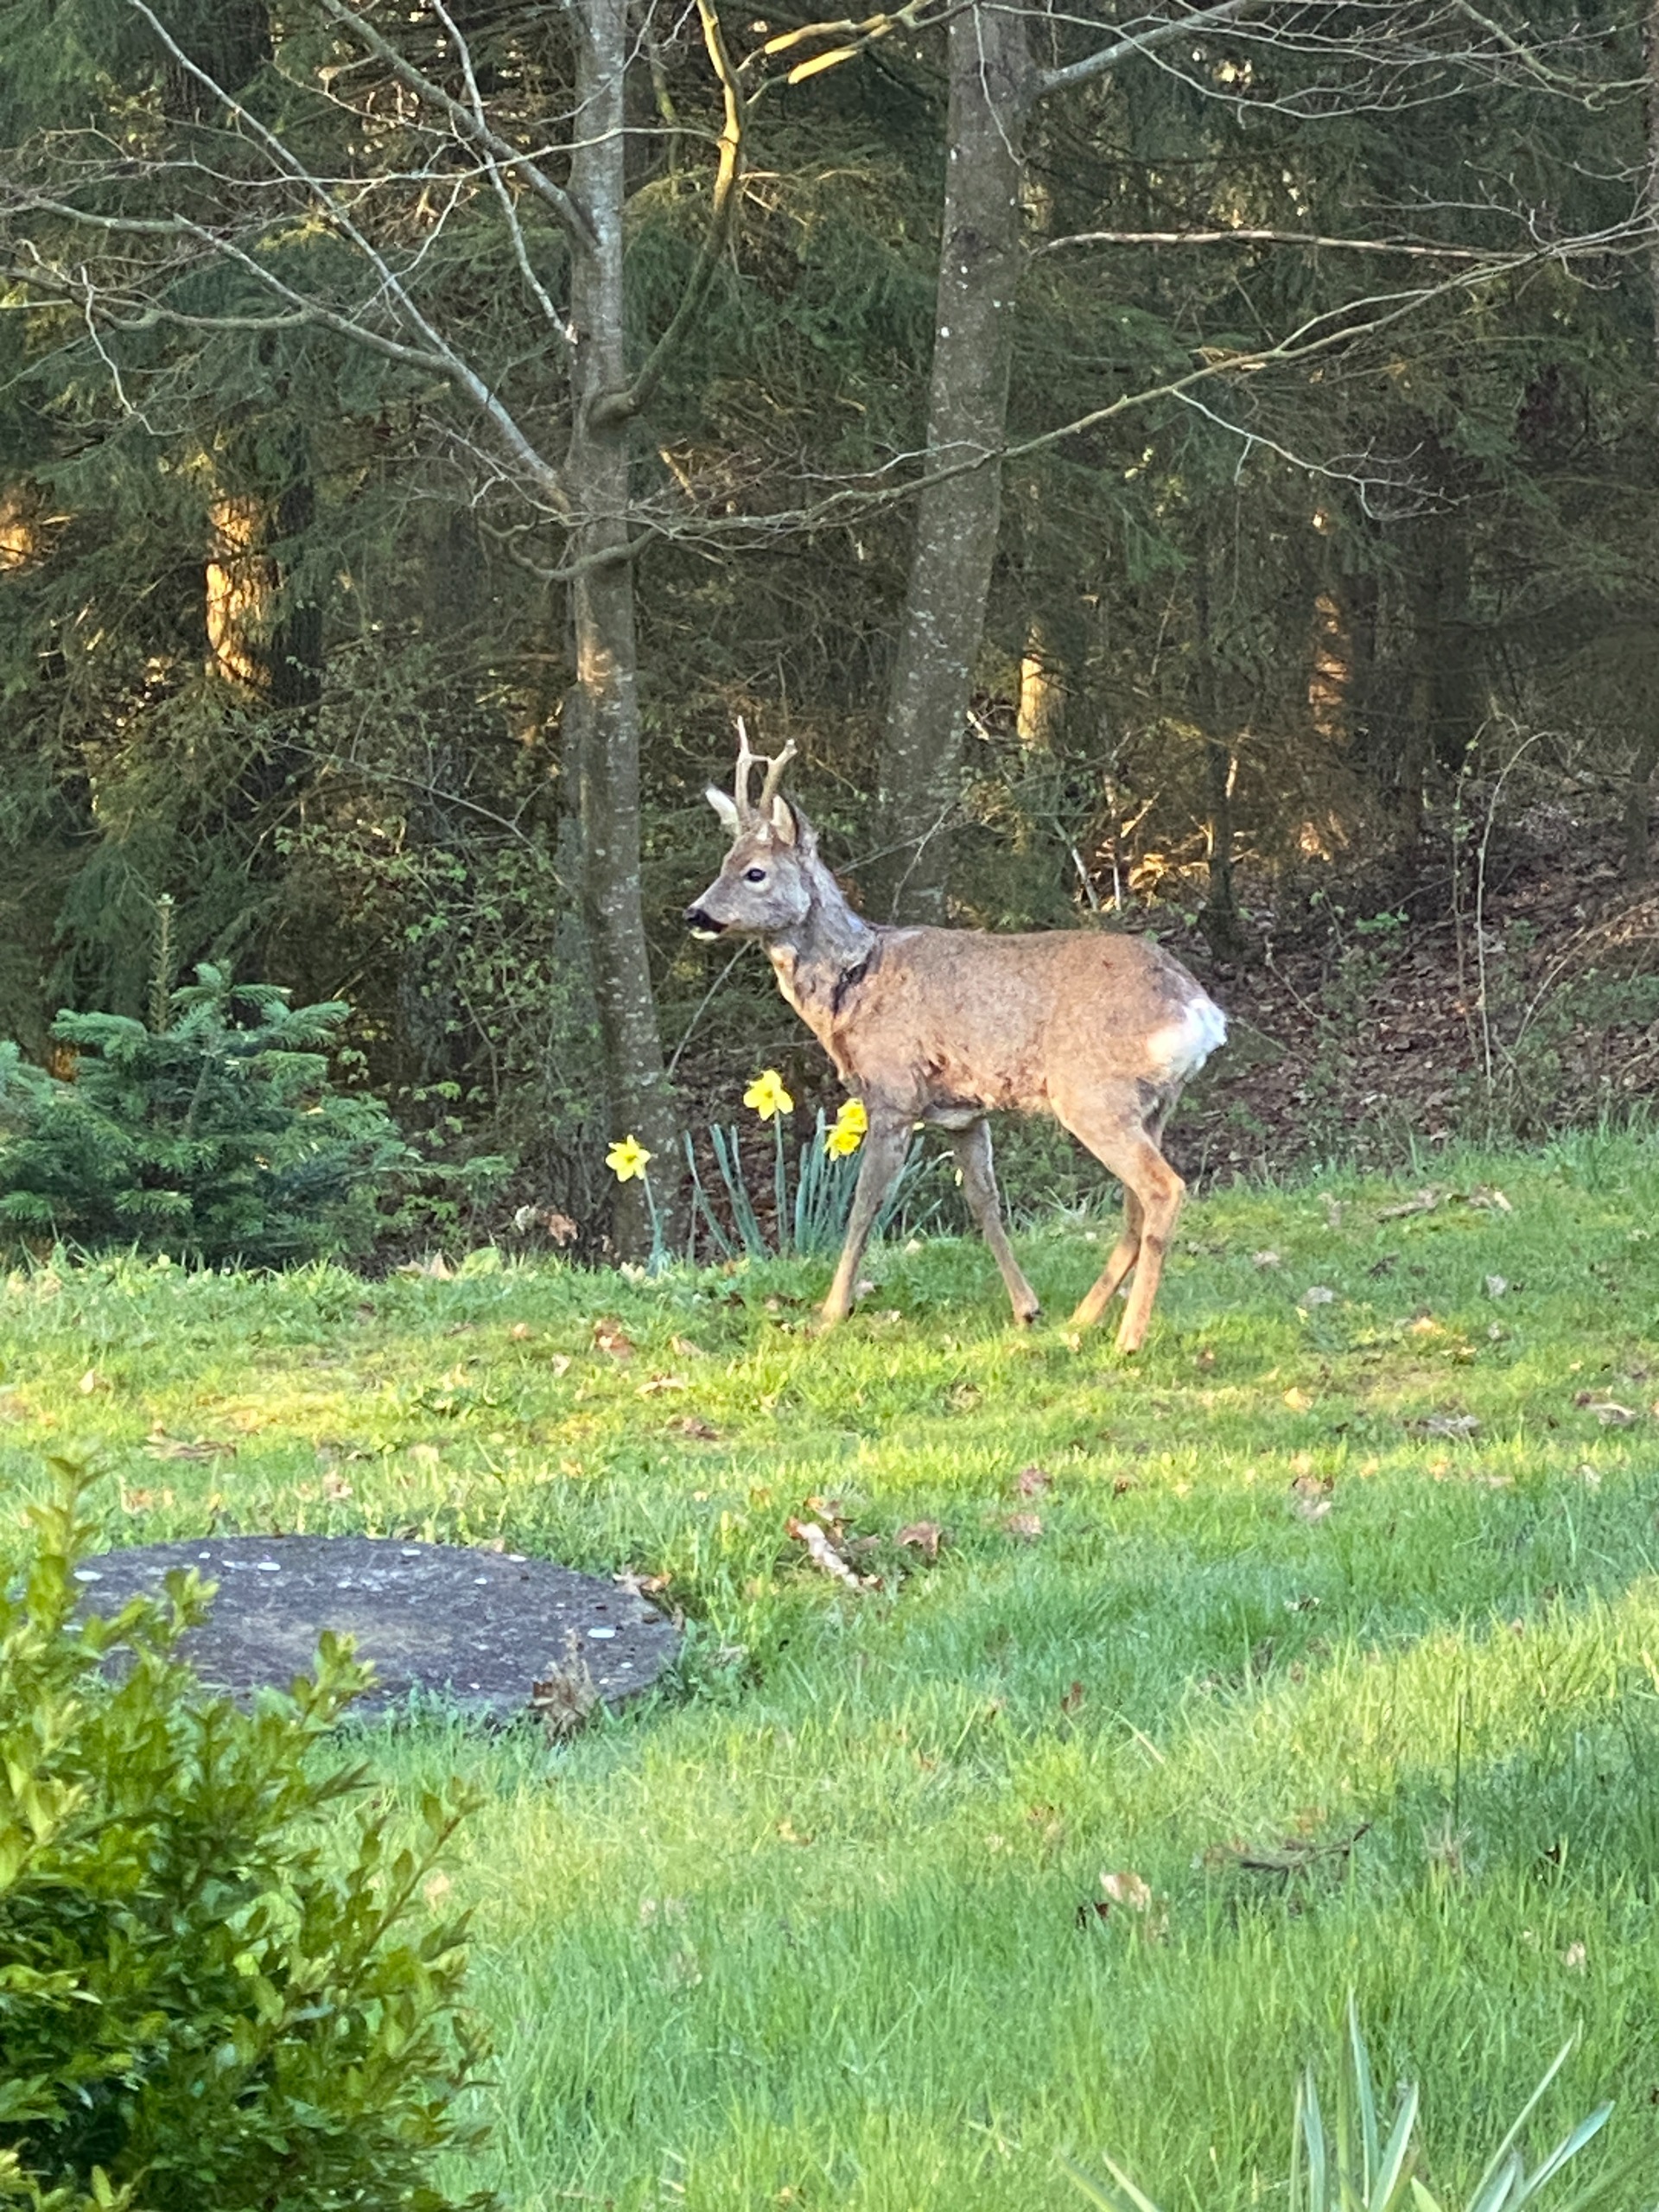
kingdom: Animalia
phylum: Chordata
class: Mammalia
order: Artiodactyla
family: Cervidae
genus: Capreolus
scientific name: Capreolus capreolus
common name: Rådyr
